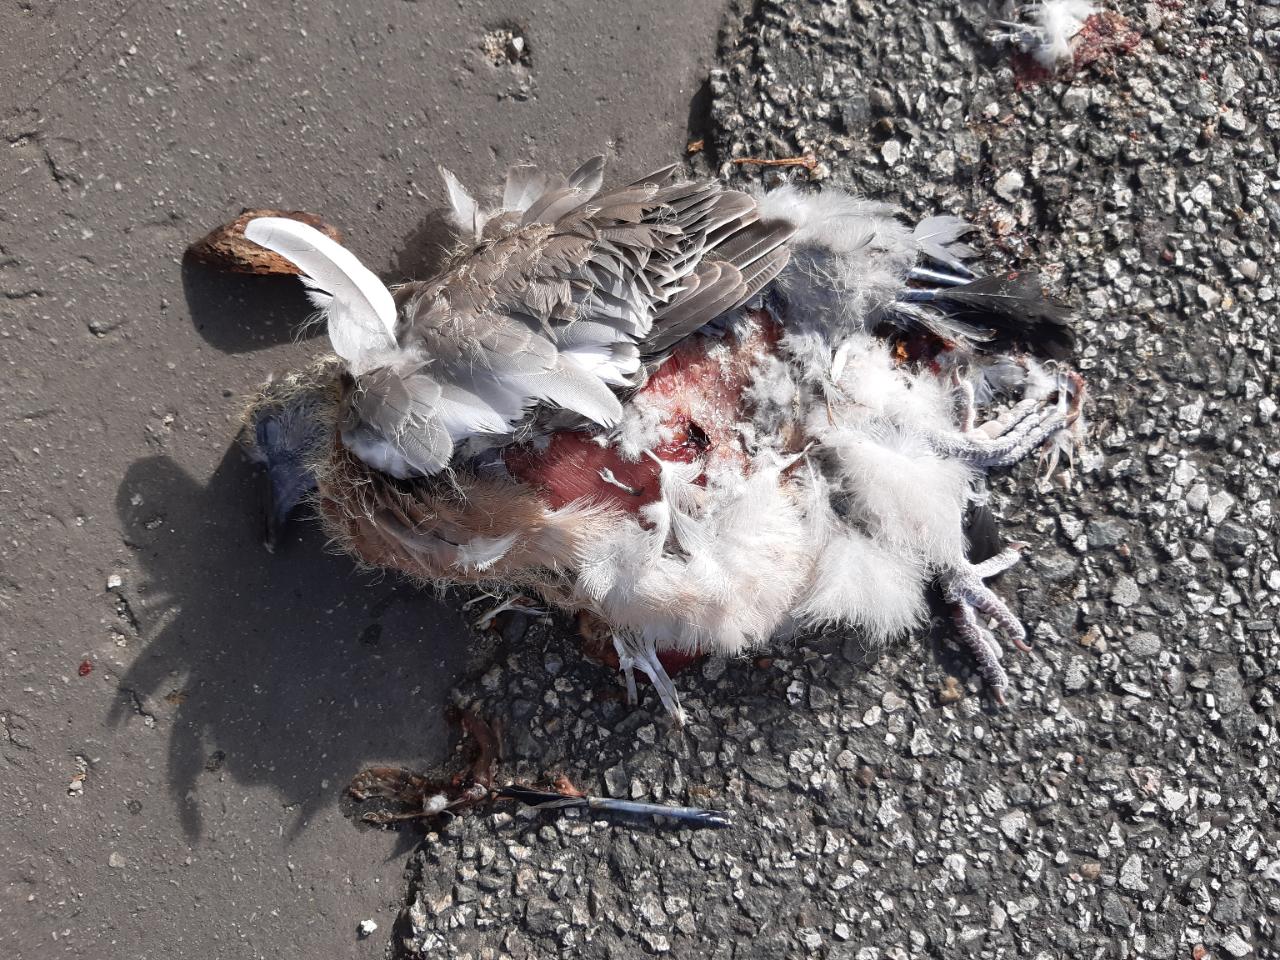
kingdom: Animalia
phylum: Chordata
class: Aves
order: Columbiformes
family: Columbidae
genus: Columba
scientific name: Columba palumbus
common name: Common wood pigeon
